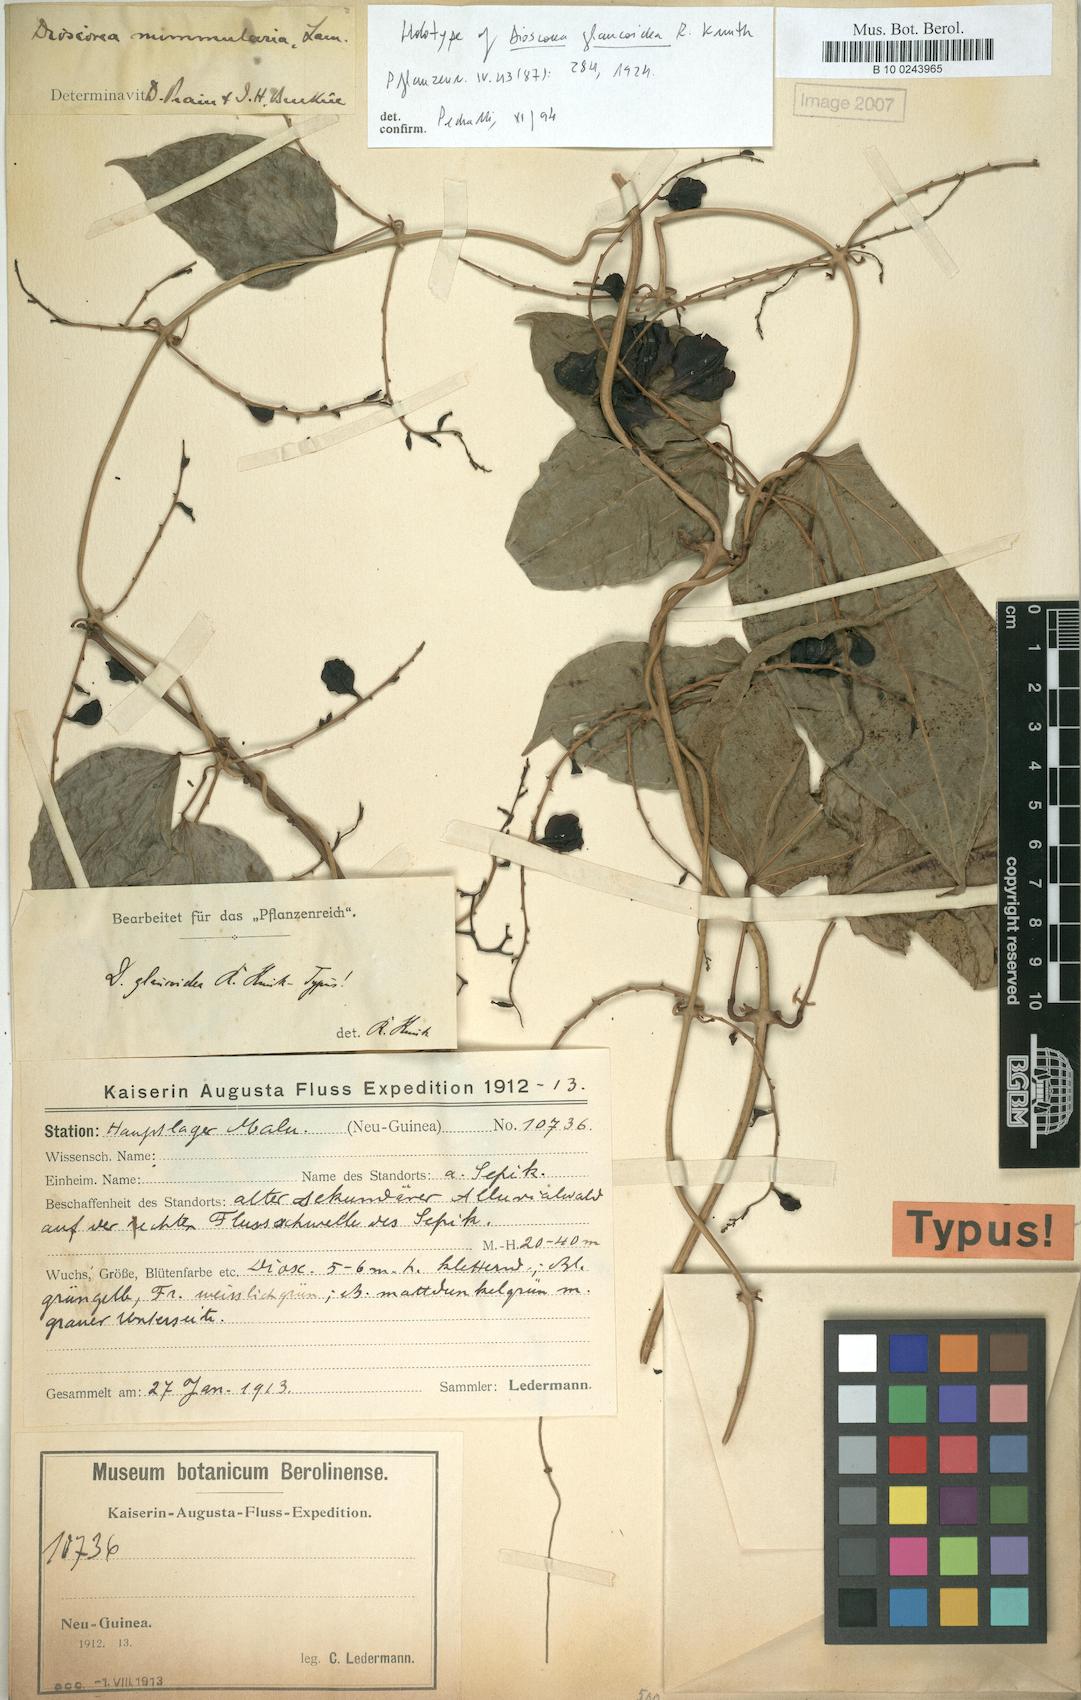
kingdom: Plantae
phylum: Tracheophyta
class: Liliopsida
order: Dioscoreales
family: Dioscoreaceae
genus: Dioscorea
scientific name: Dioscorea nummularia
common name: Pacific yam
